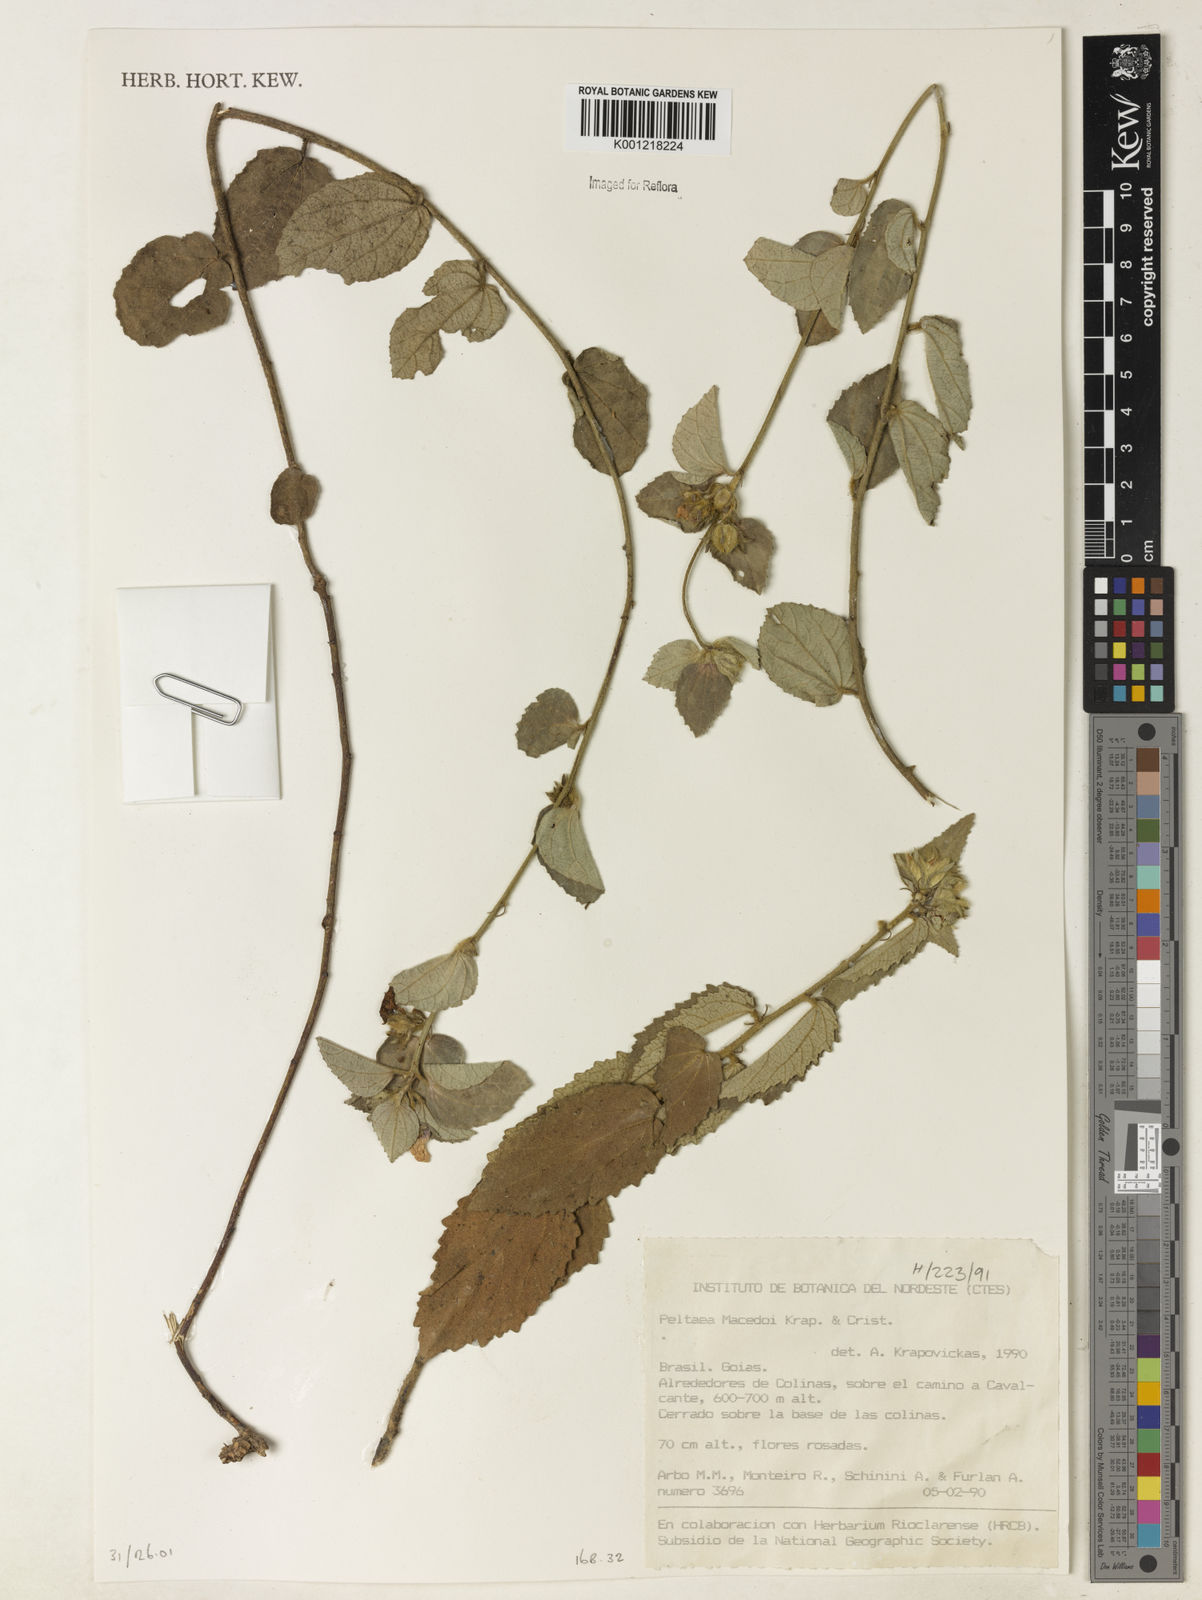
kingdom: Plantae
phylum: Tracheophyta
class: Magnoliopsida
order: Malvales
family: Malvaceae
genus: Peltaea
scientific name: Peltaea
